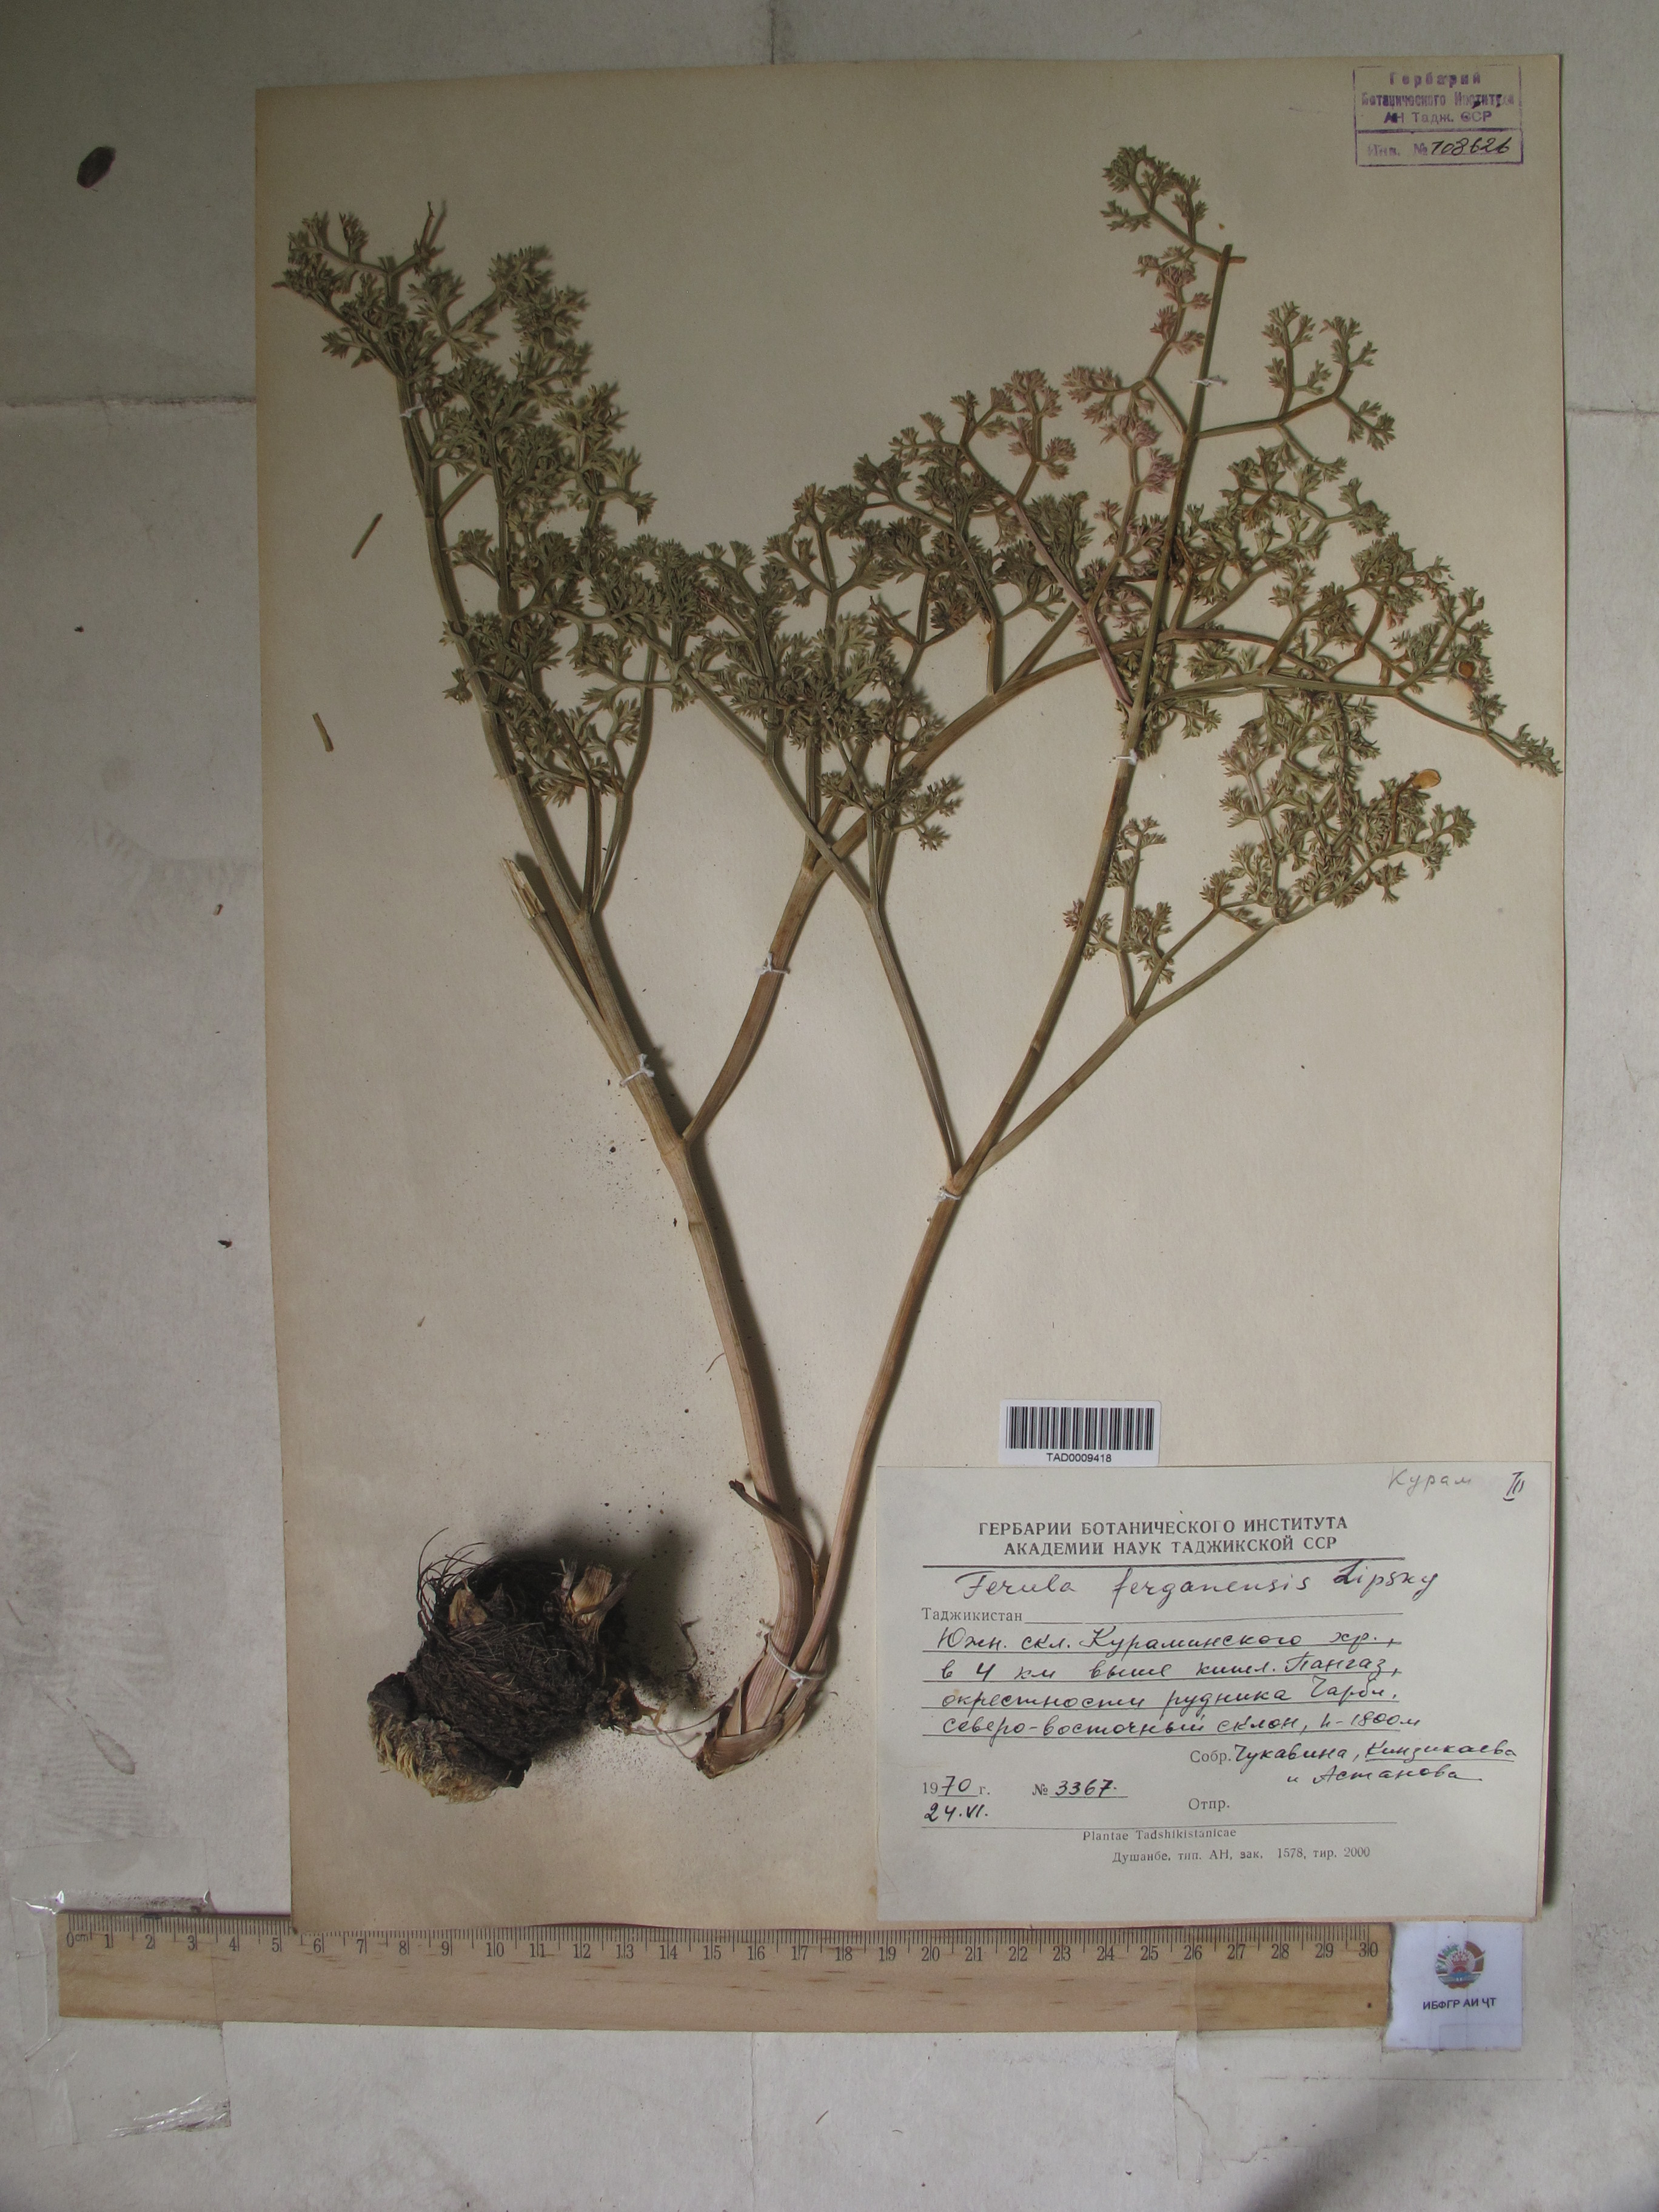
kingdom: Plantae
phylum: Tracheophyta
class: Magnoliopsida
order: Apiales
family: Apiaceae
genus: Ferula
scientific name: Ferula ferganensis
